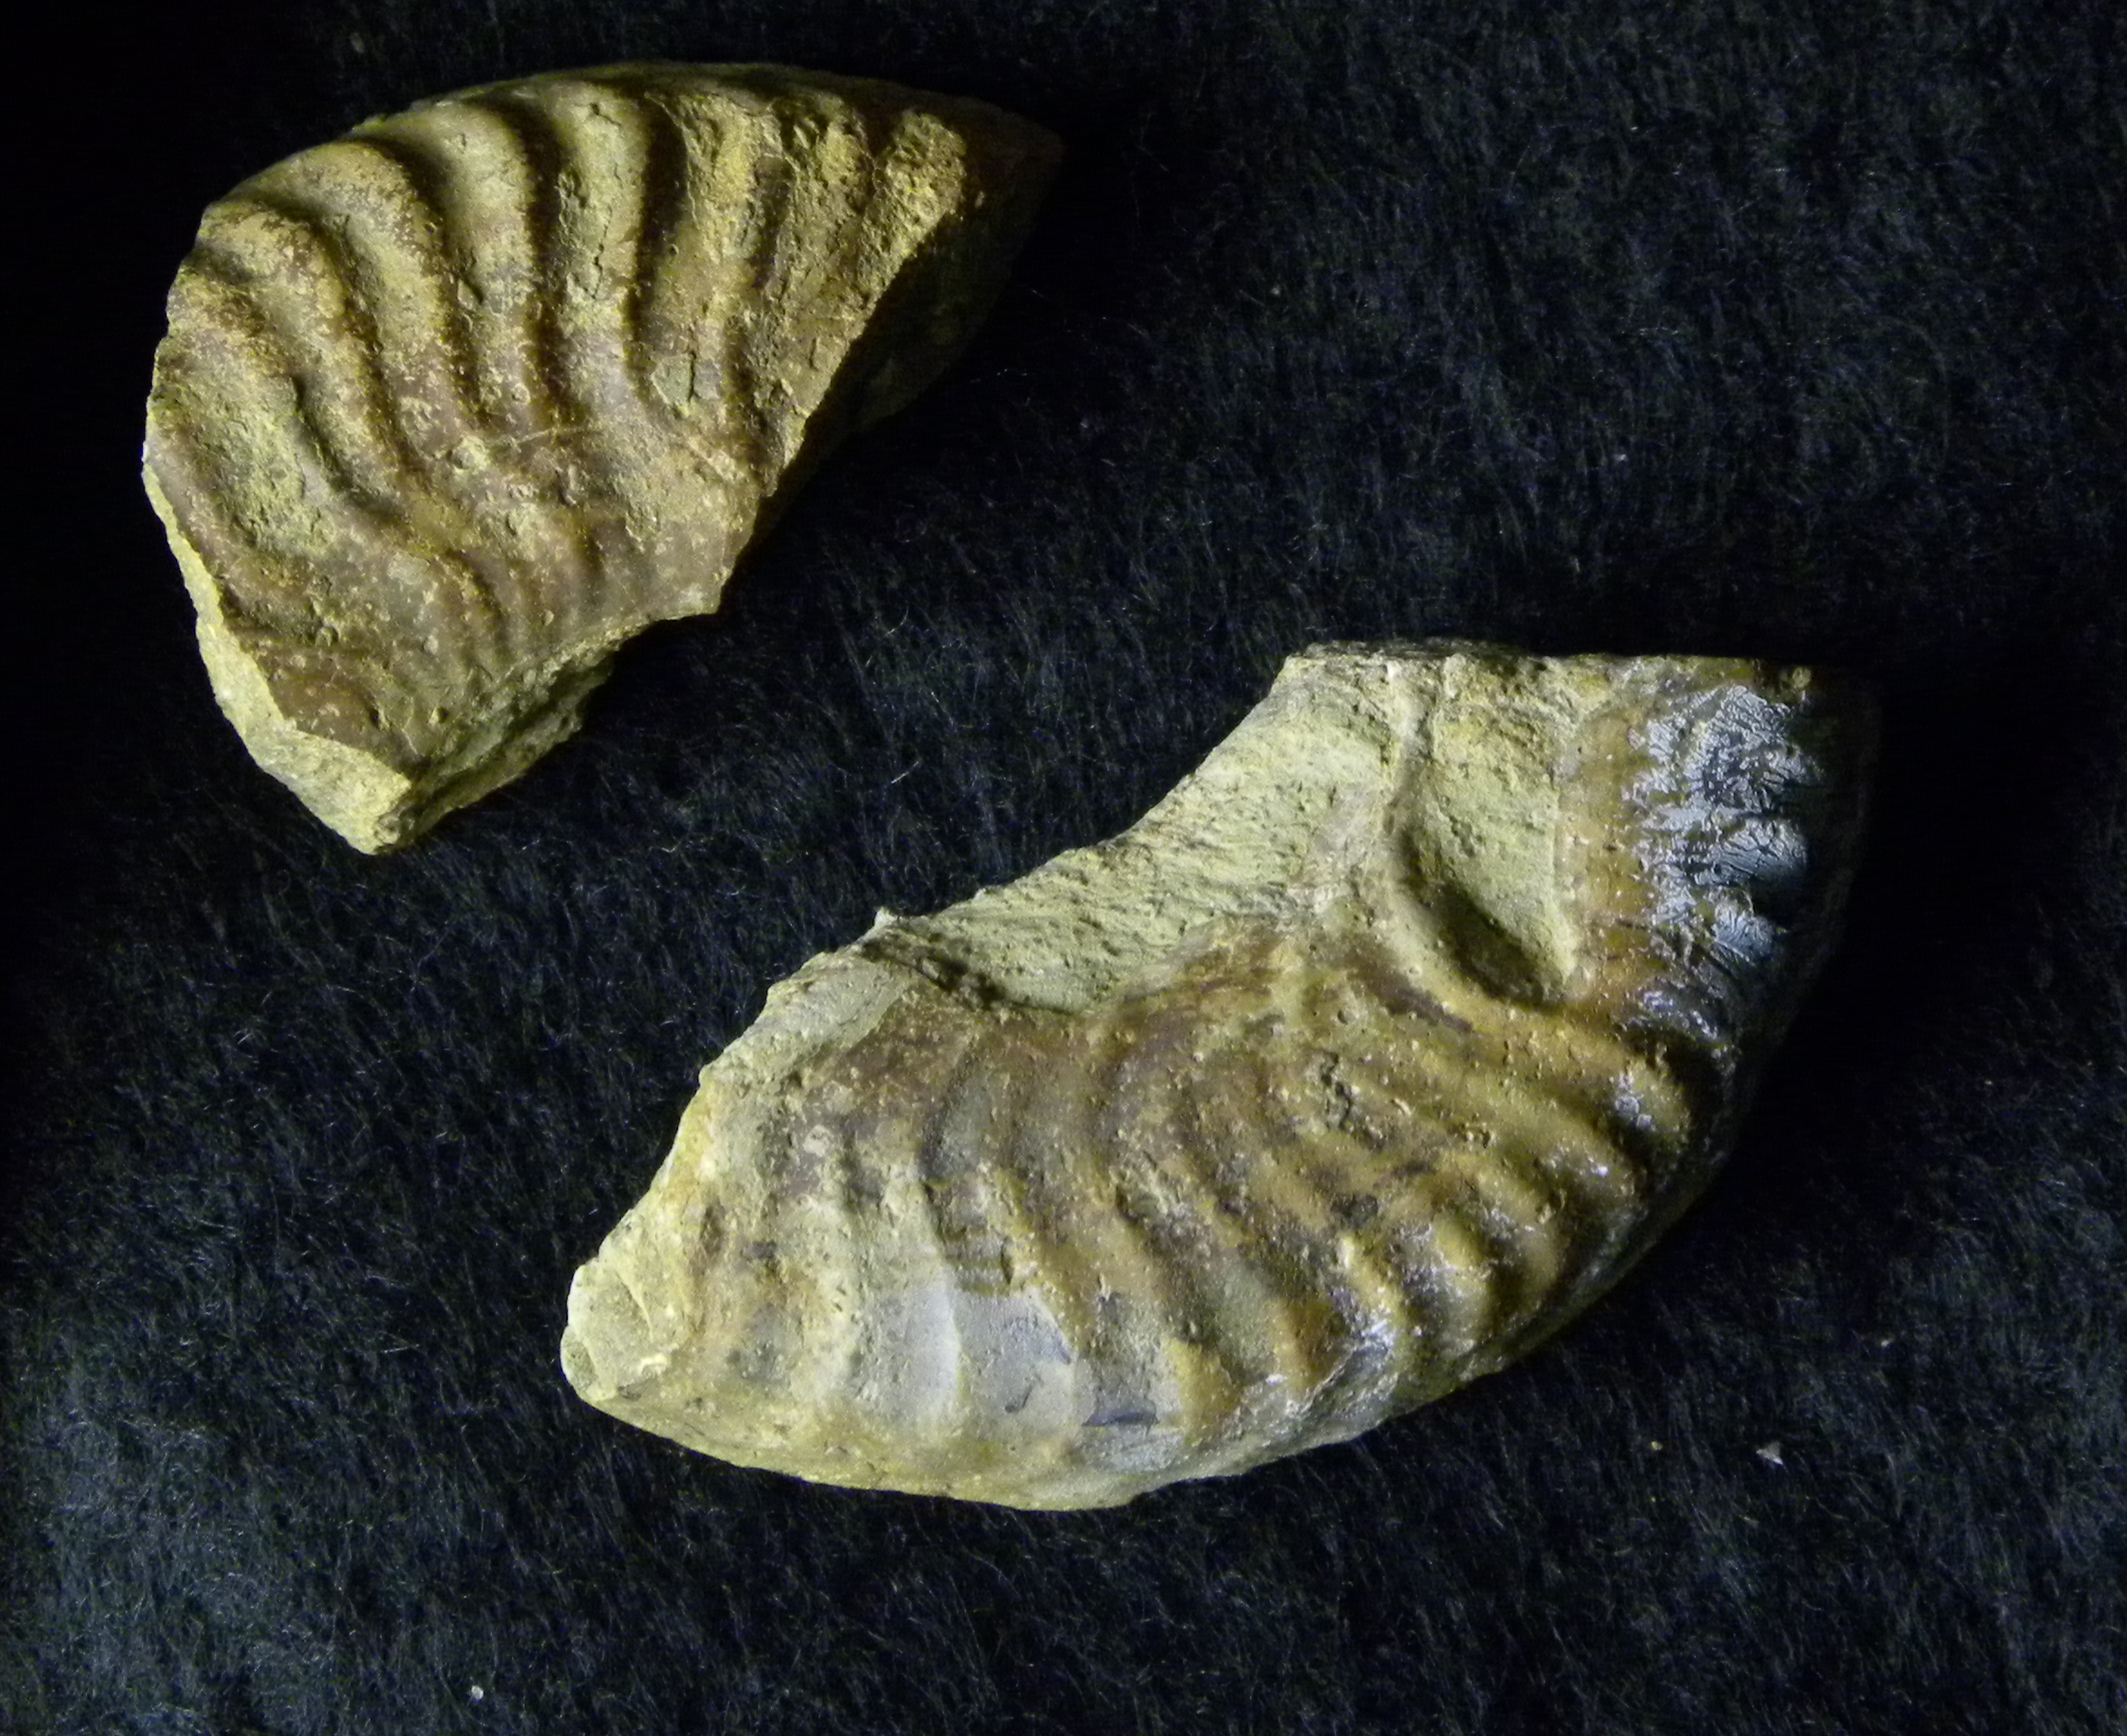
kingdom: Animalia
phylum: Mollusca
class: Cephalopoda
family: Hildoceratidae
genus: Grammoceras
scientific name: Grammoceras thouarsense
